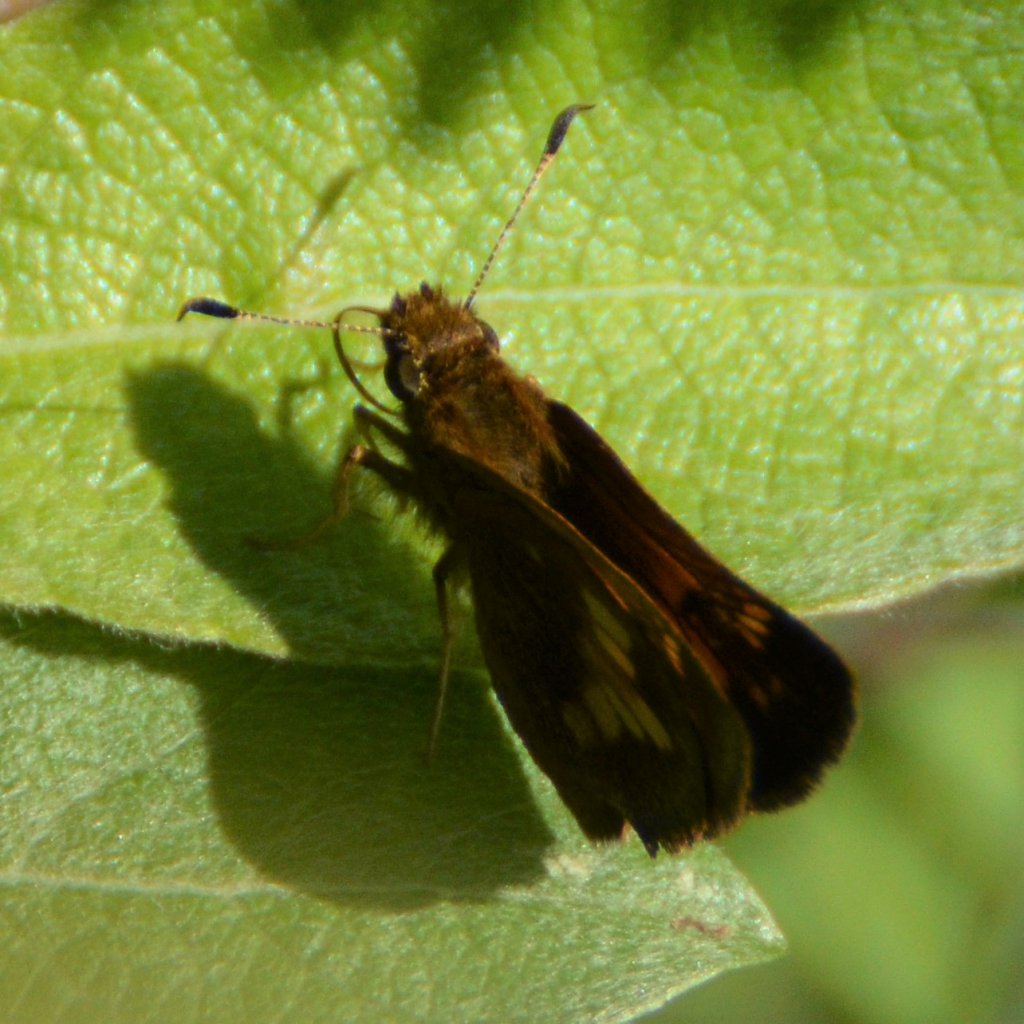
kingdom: Animalia
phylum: Arthropoda
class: Insecta
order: Lepidoptera
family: Hesperiidae
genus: Lon
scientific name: Lon hobomok
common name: Hobomok Skipper
